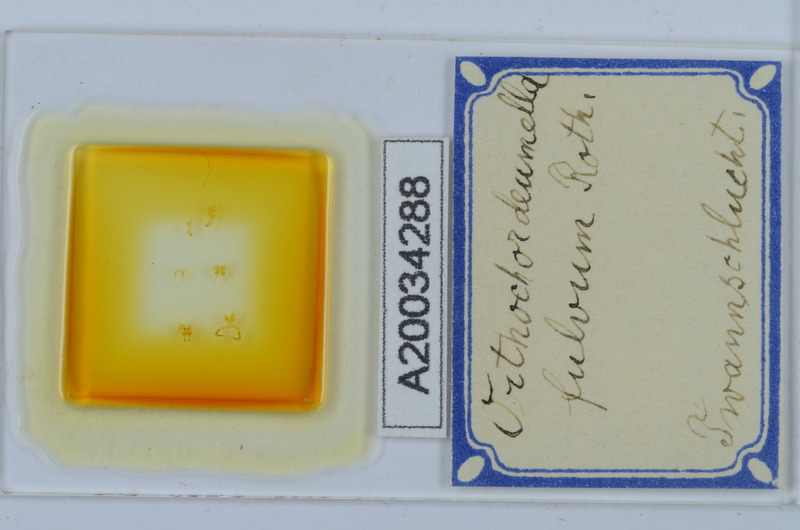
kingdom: Animalia
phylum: Arthropoda
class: Diplopoda
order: Chordeumatida
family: Chordeumatidae
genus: Orthochordeumella
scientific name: Orthochordeumella fulva
